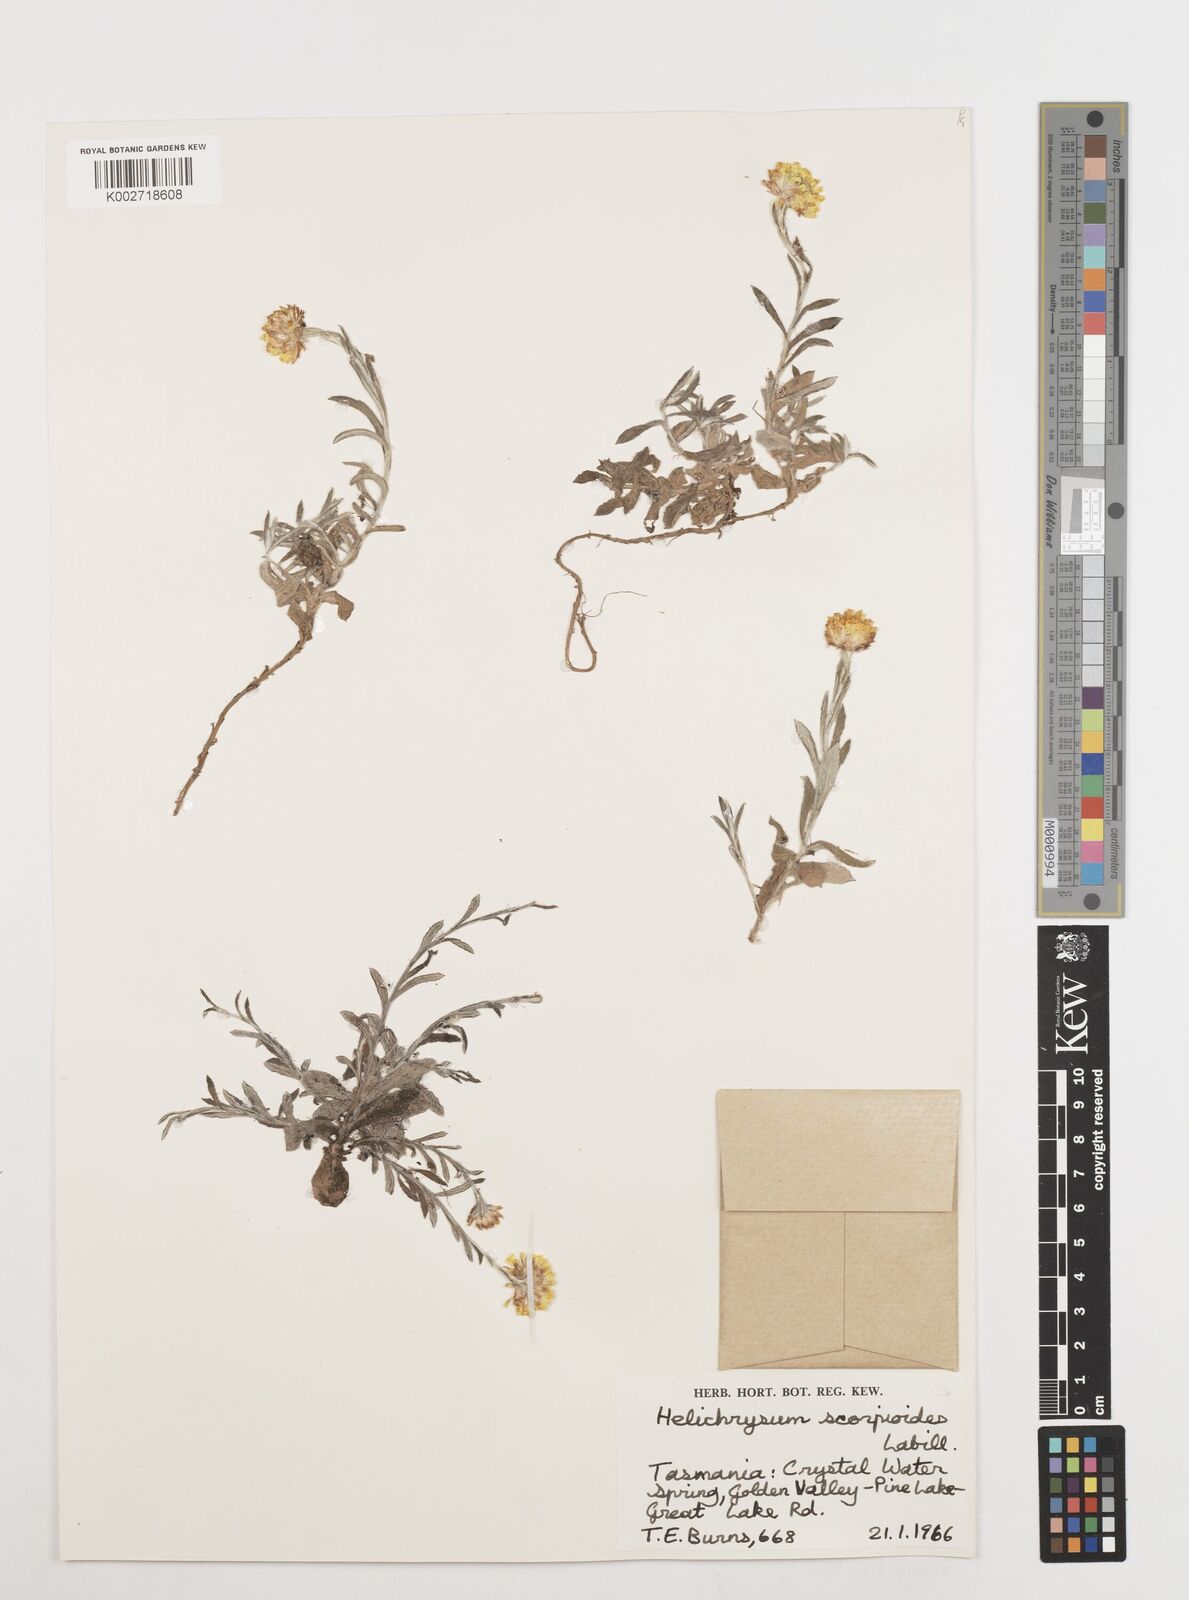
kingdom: Plantae
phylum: Tracheophyta
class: Magnoliopsida
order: Asterales
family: Asteraceae
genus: Coronidium
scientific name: Coronidium scorpioides
